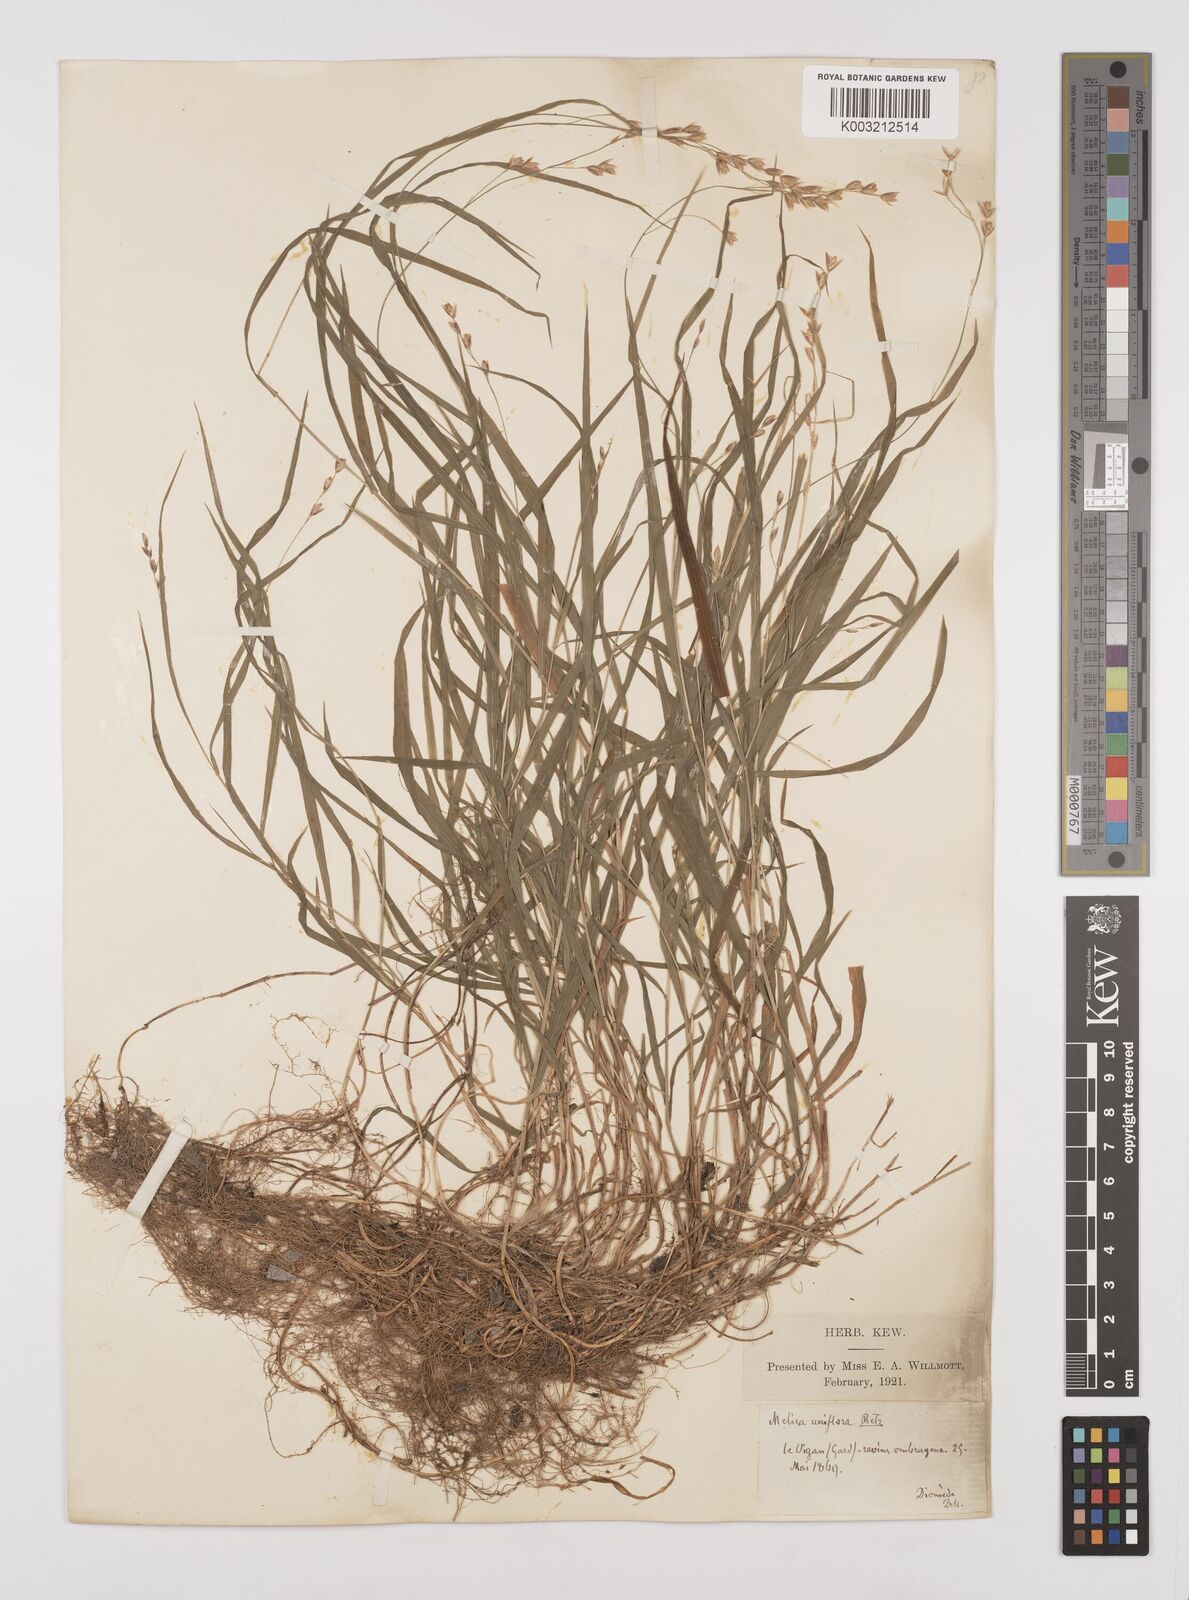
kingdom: Plantae
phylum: Tracheophyta
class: Liliopsida
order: Poales
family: Poaceae
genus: Melica
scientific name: Melica uniflora
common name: Wood melick
